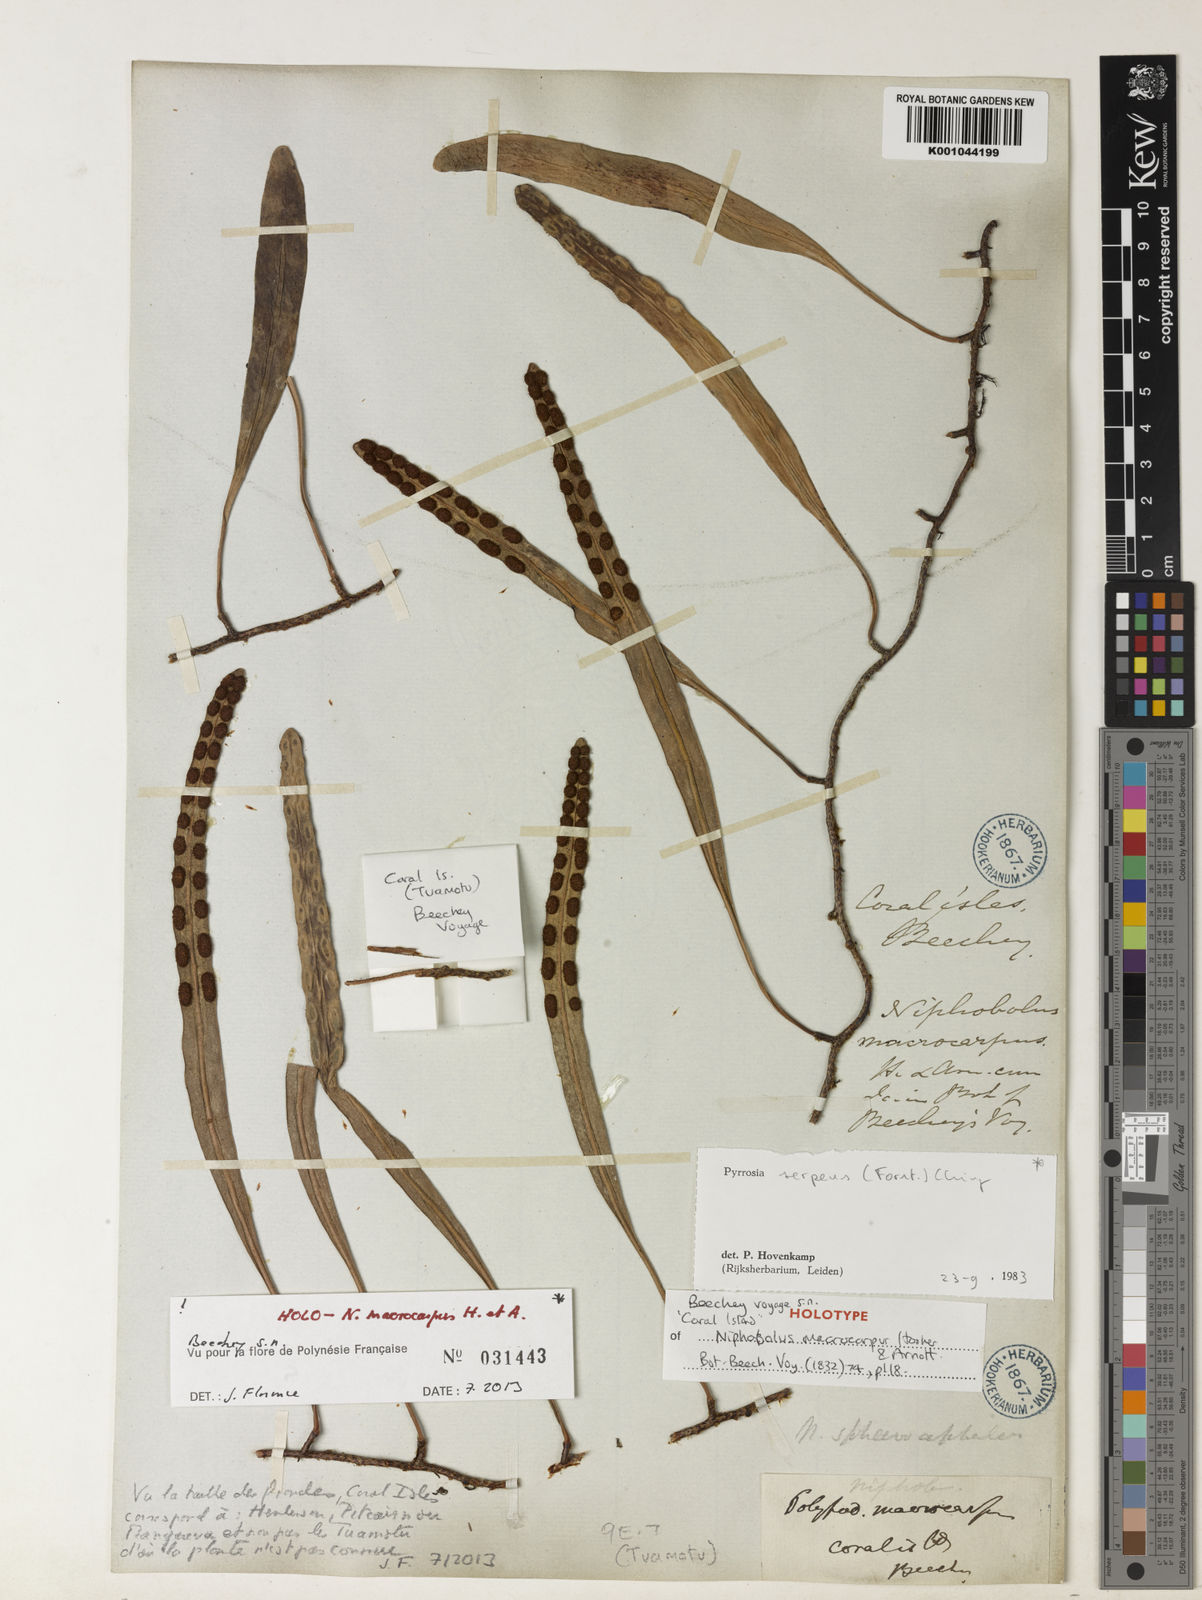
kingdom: Plantae
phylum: Tracheophyta
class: Polypodiopsida
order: Polypodiales
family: Polypodiaceae
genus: Pyrrosia
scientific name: Pyrrosia serpens
